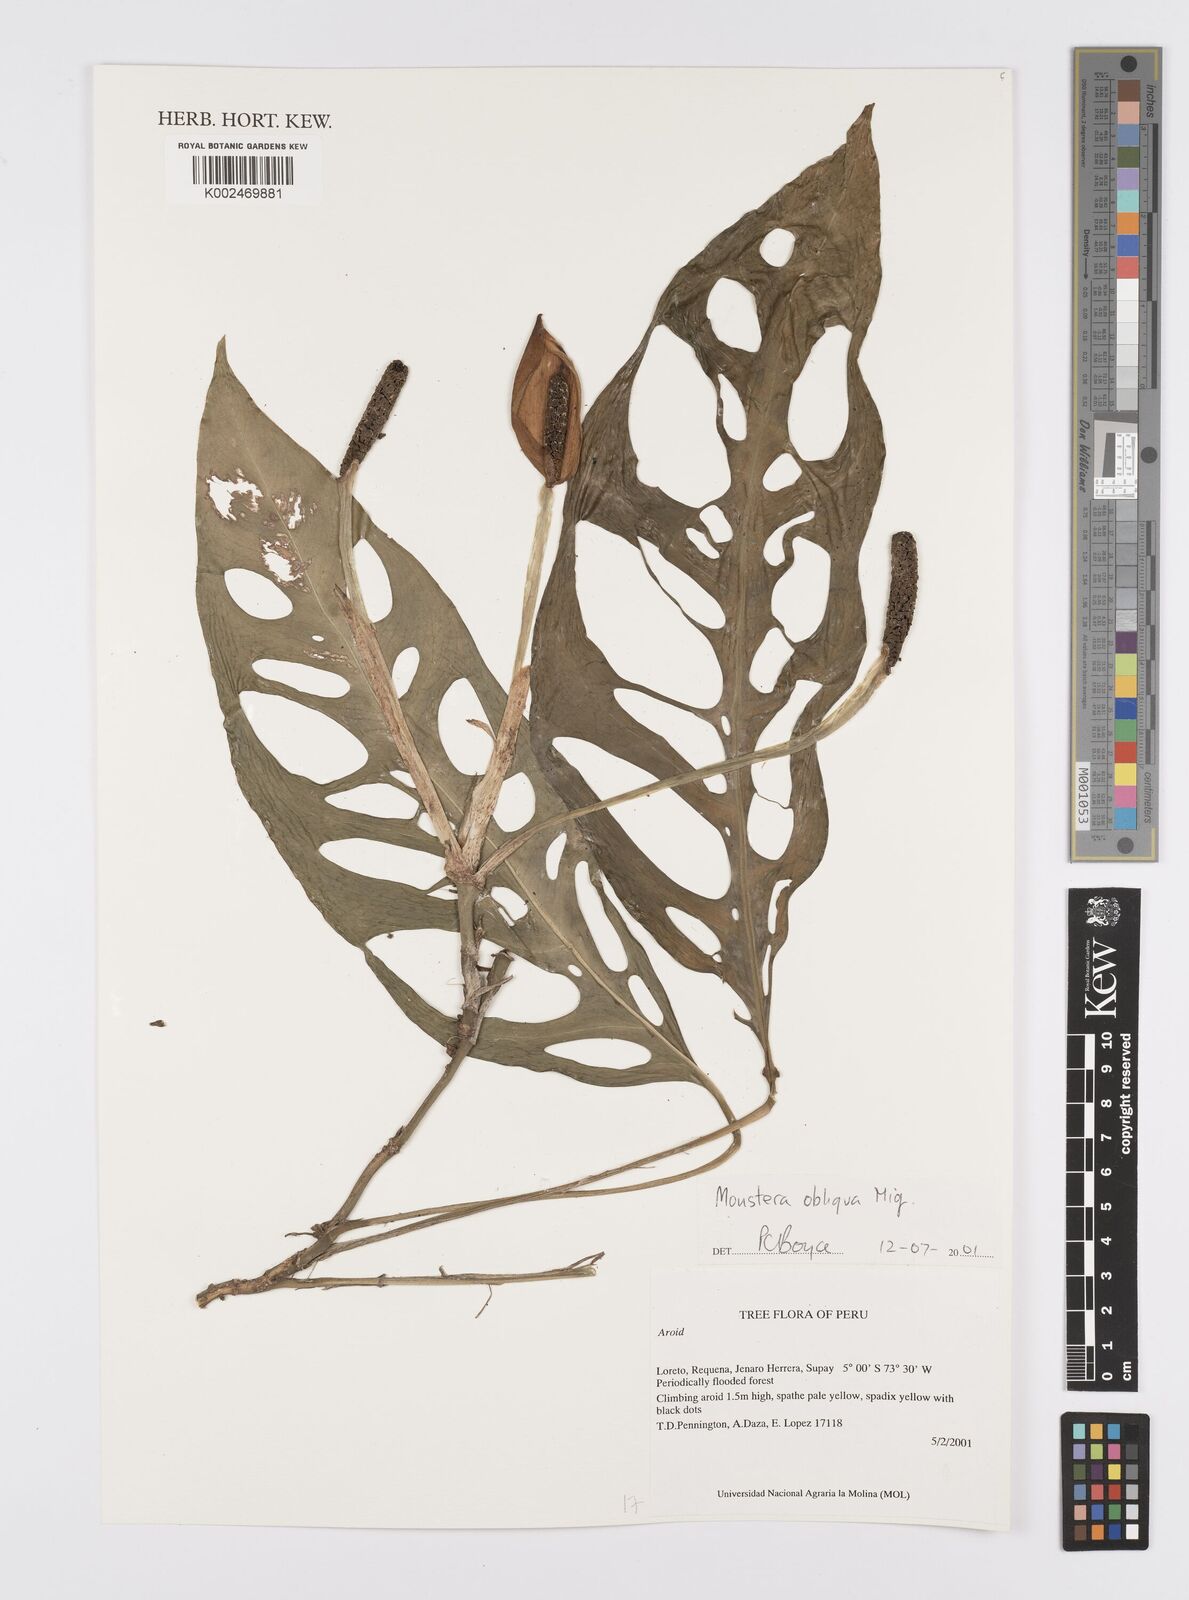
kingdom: Plantae
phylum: Tracheophyta
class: Liliopsida
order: Alismatales
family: Araceae
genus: Monstera
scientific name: Monstera obliqua
